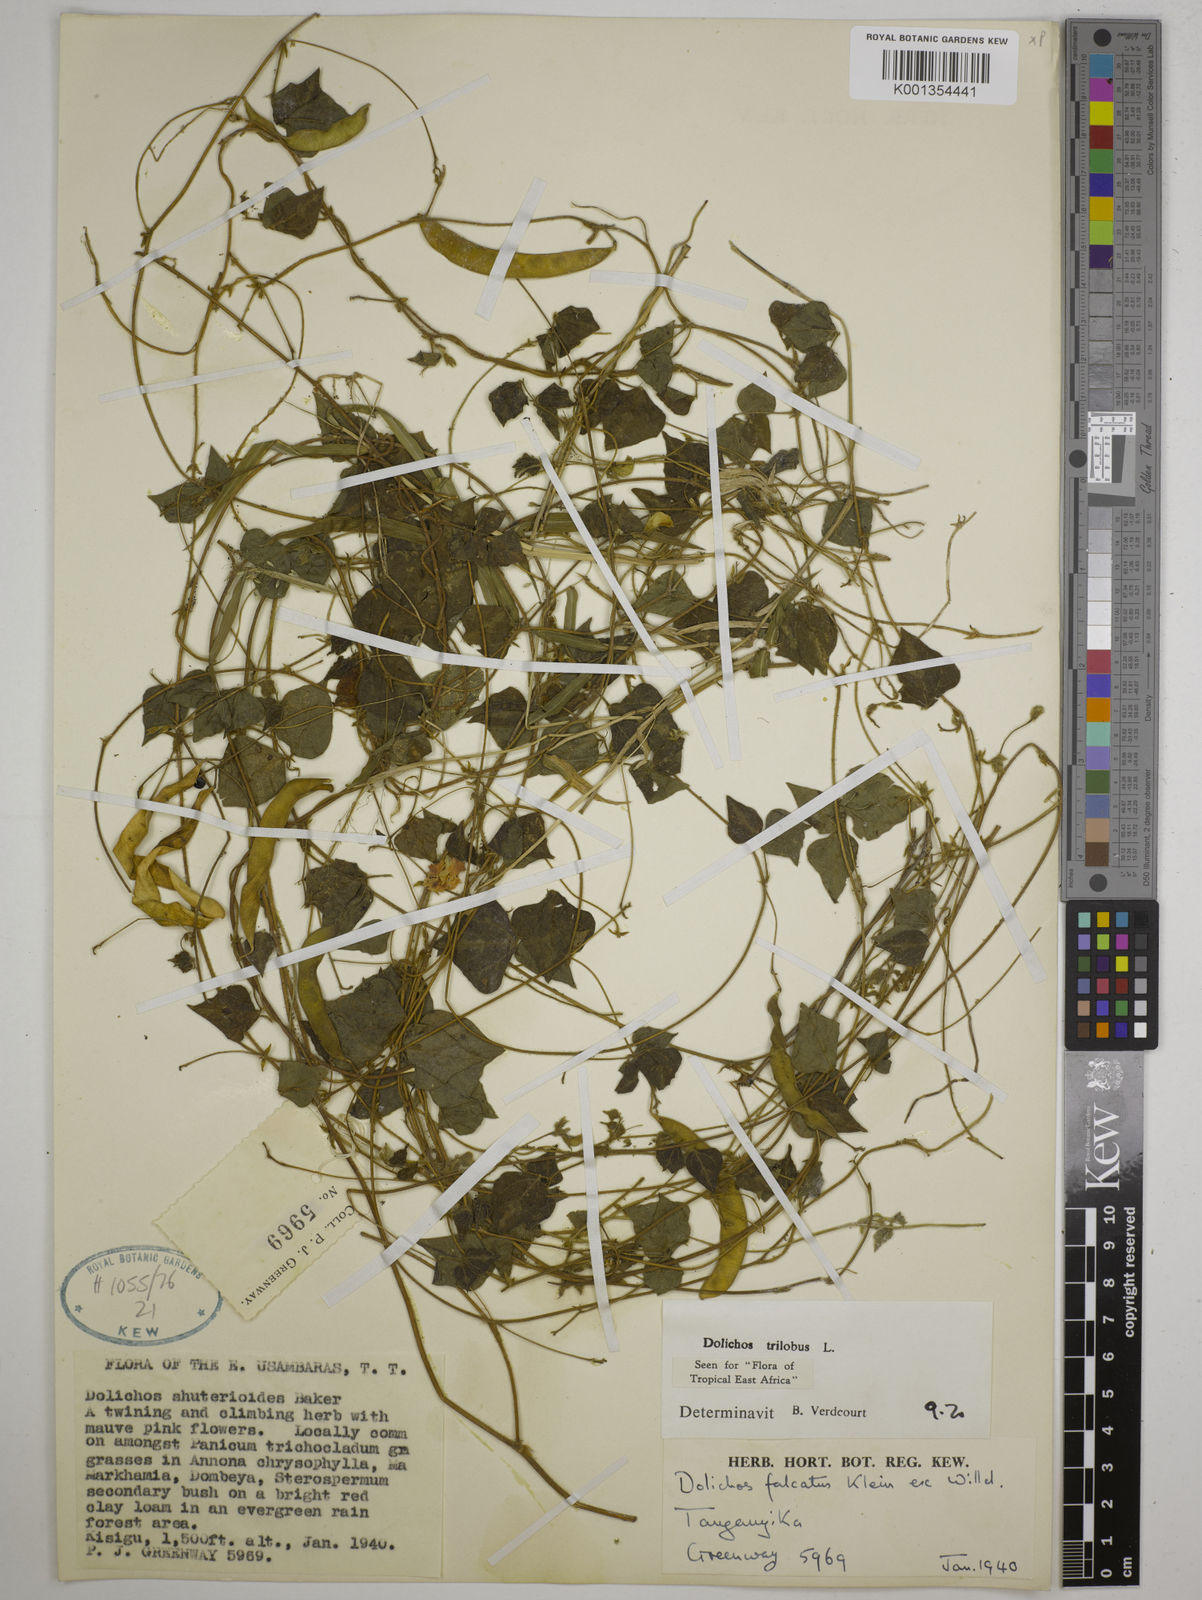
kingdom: Plantae
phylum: Tracheophyta
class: Magnoliopsida
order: Fabales
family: Fabaceae
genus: Dolichos
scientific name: Dolichos
